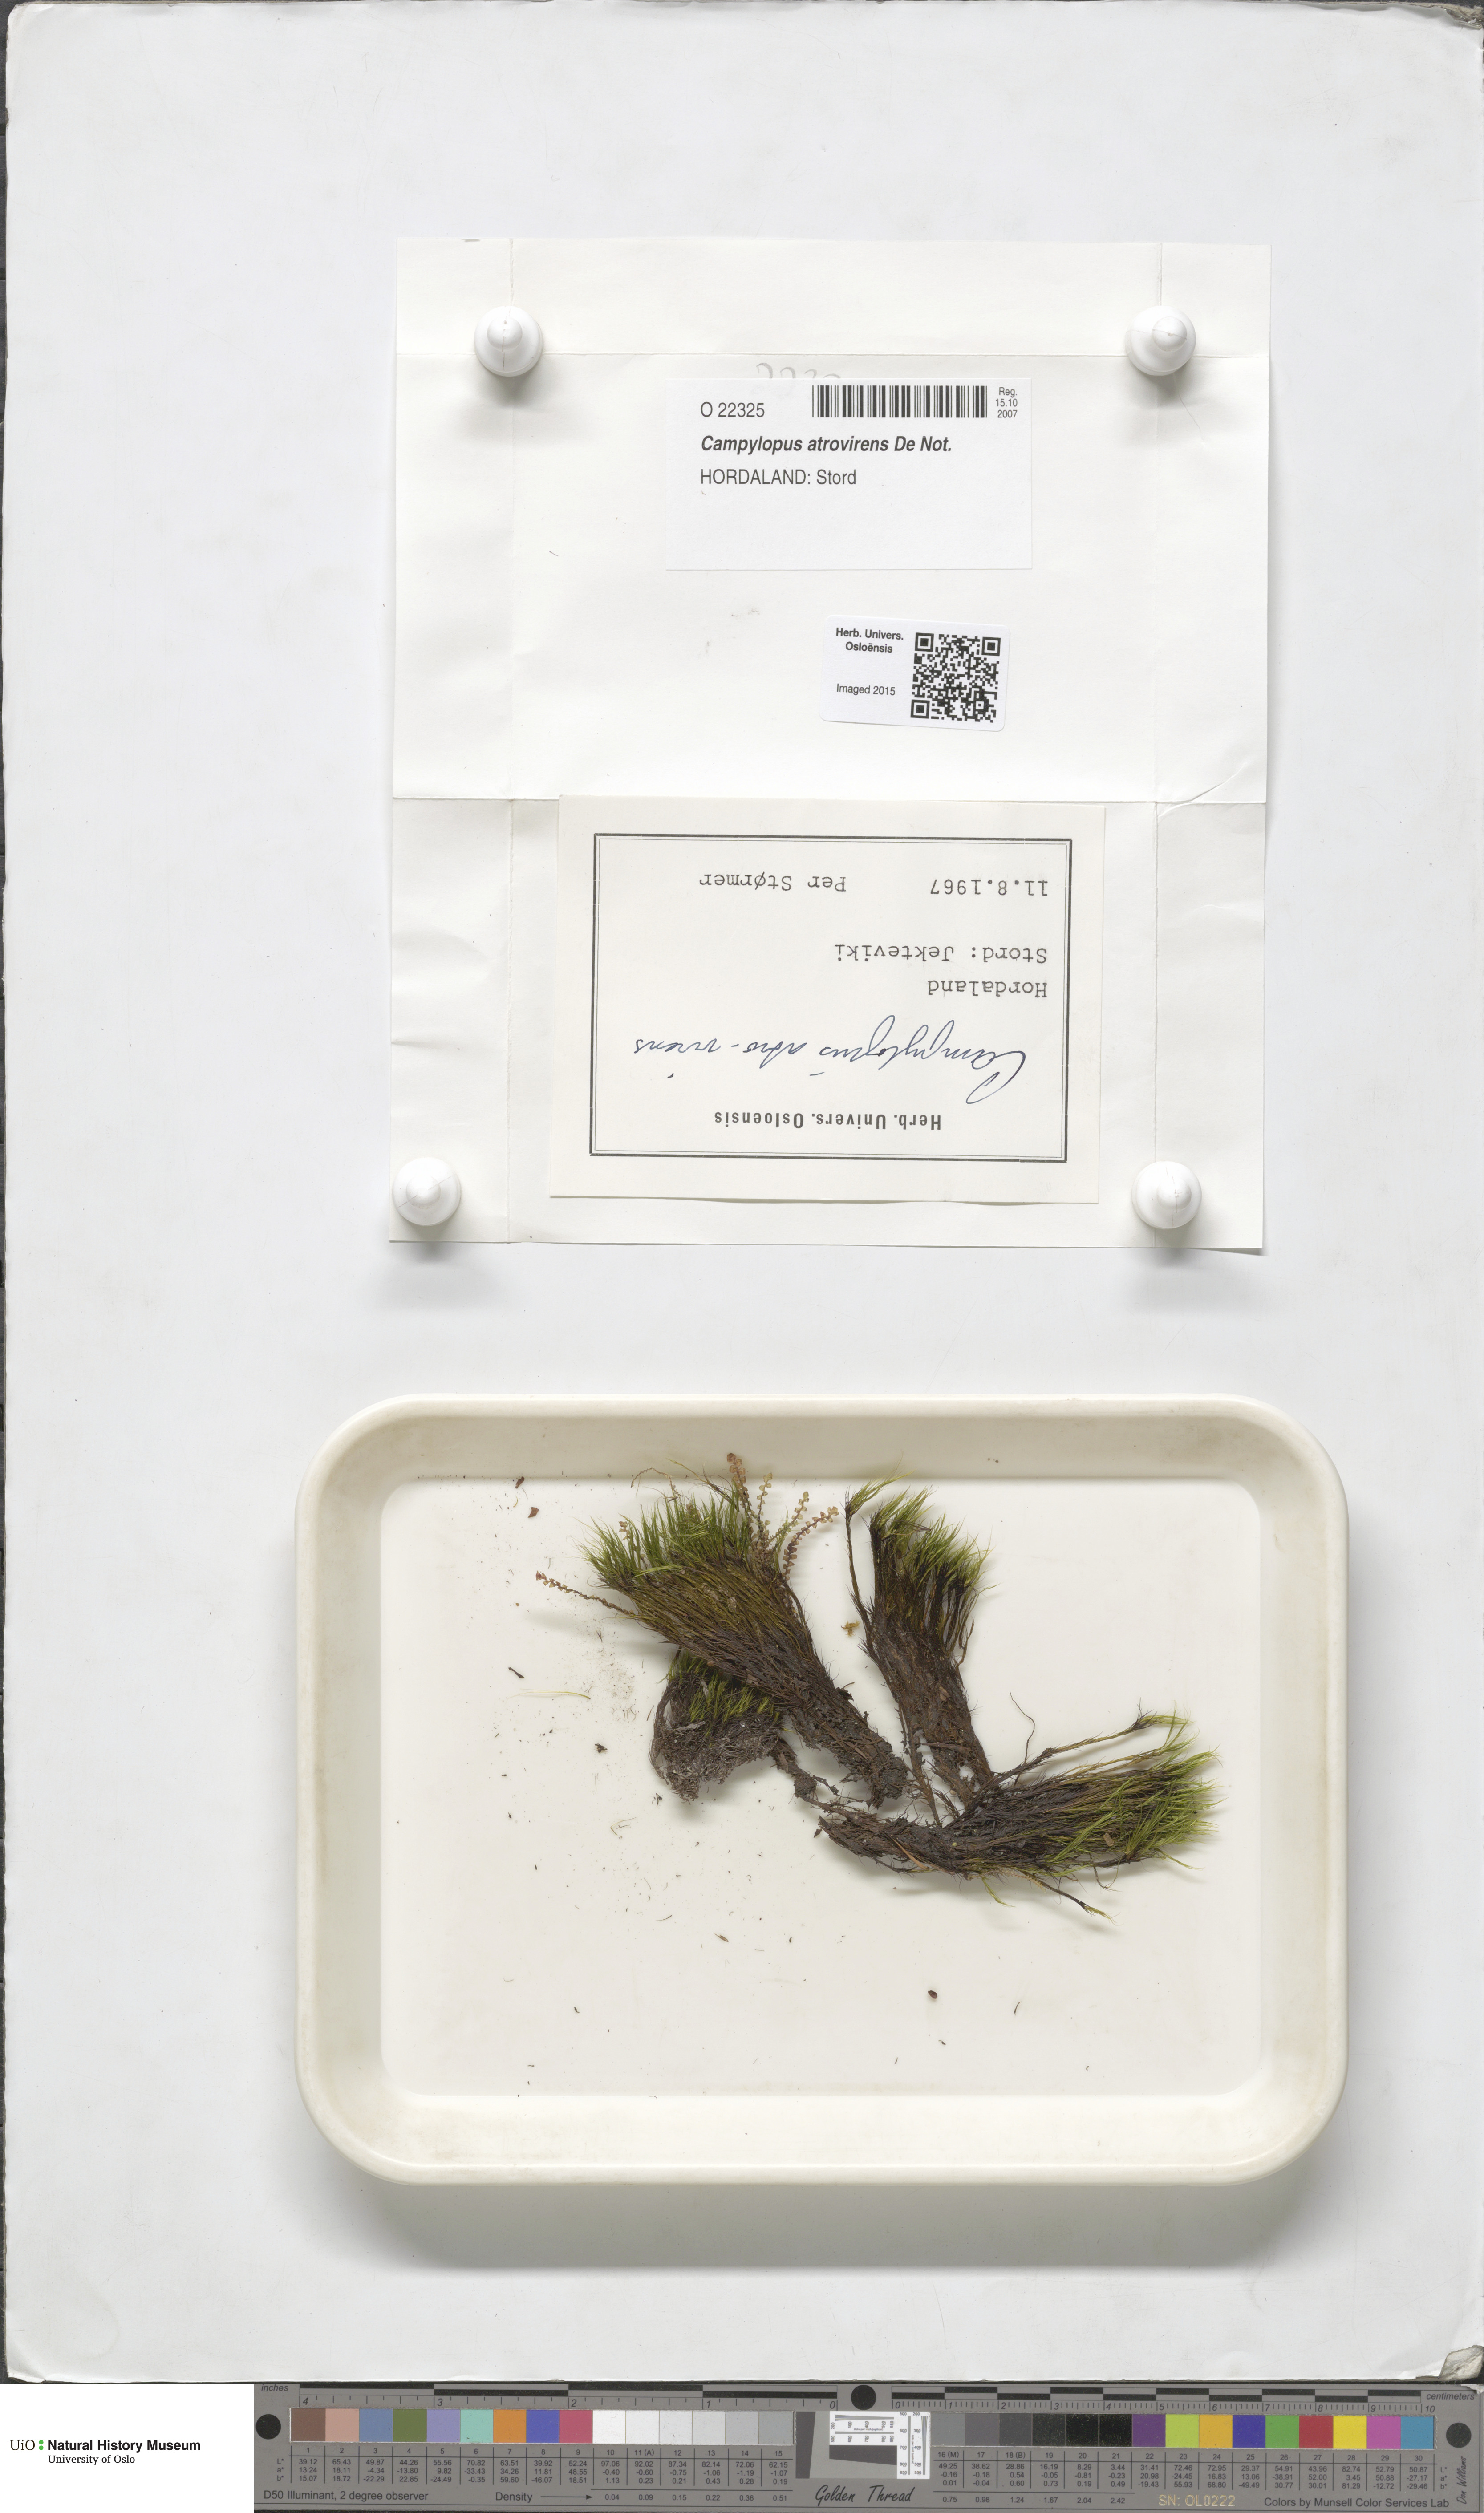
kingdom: Plantae
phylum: Bryophyta
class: Bryopsida
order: Dicranales
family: Leucobryaceae
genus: Campylopus
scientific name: Campylopus atrovirens
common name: Bristly swan-neck moss
